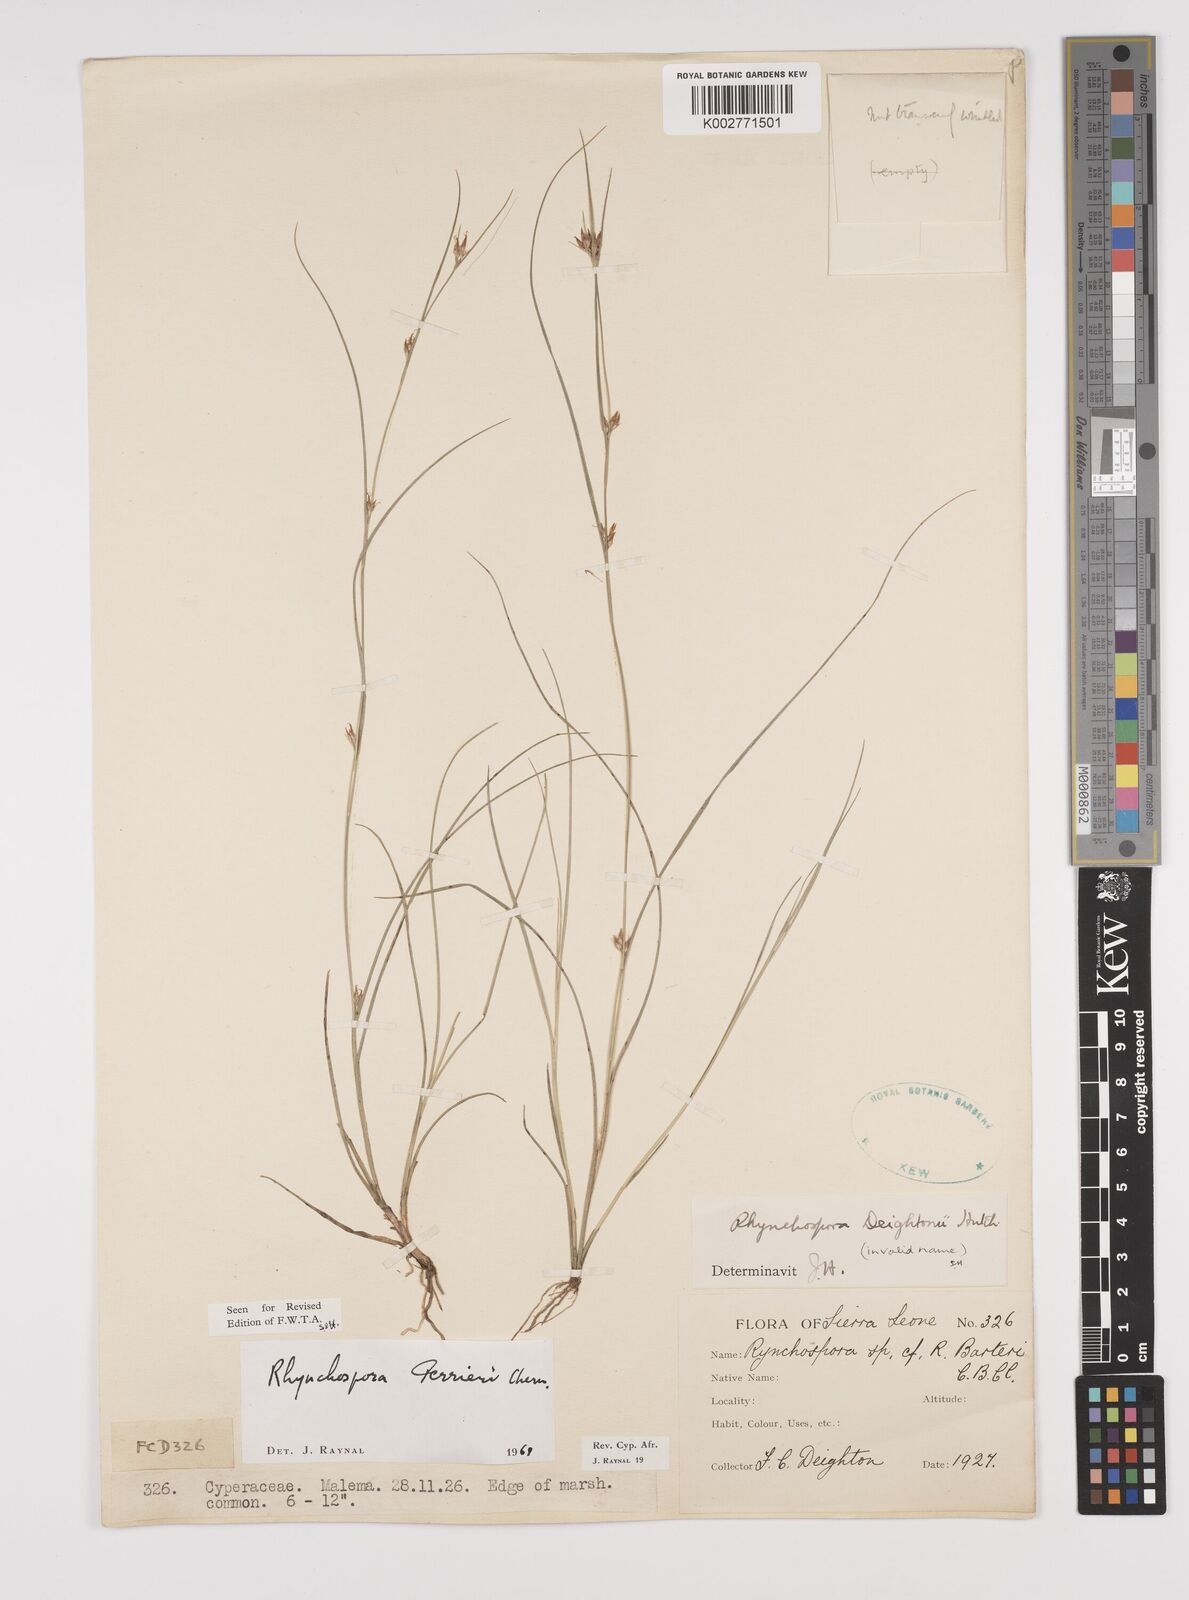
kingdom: Plantae
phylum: Tracheophyta
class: Liliopsida
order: Poales
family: Cyperaceae
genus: Rhynchospora
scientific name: Rhynchospora perrieri
